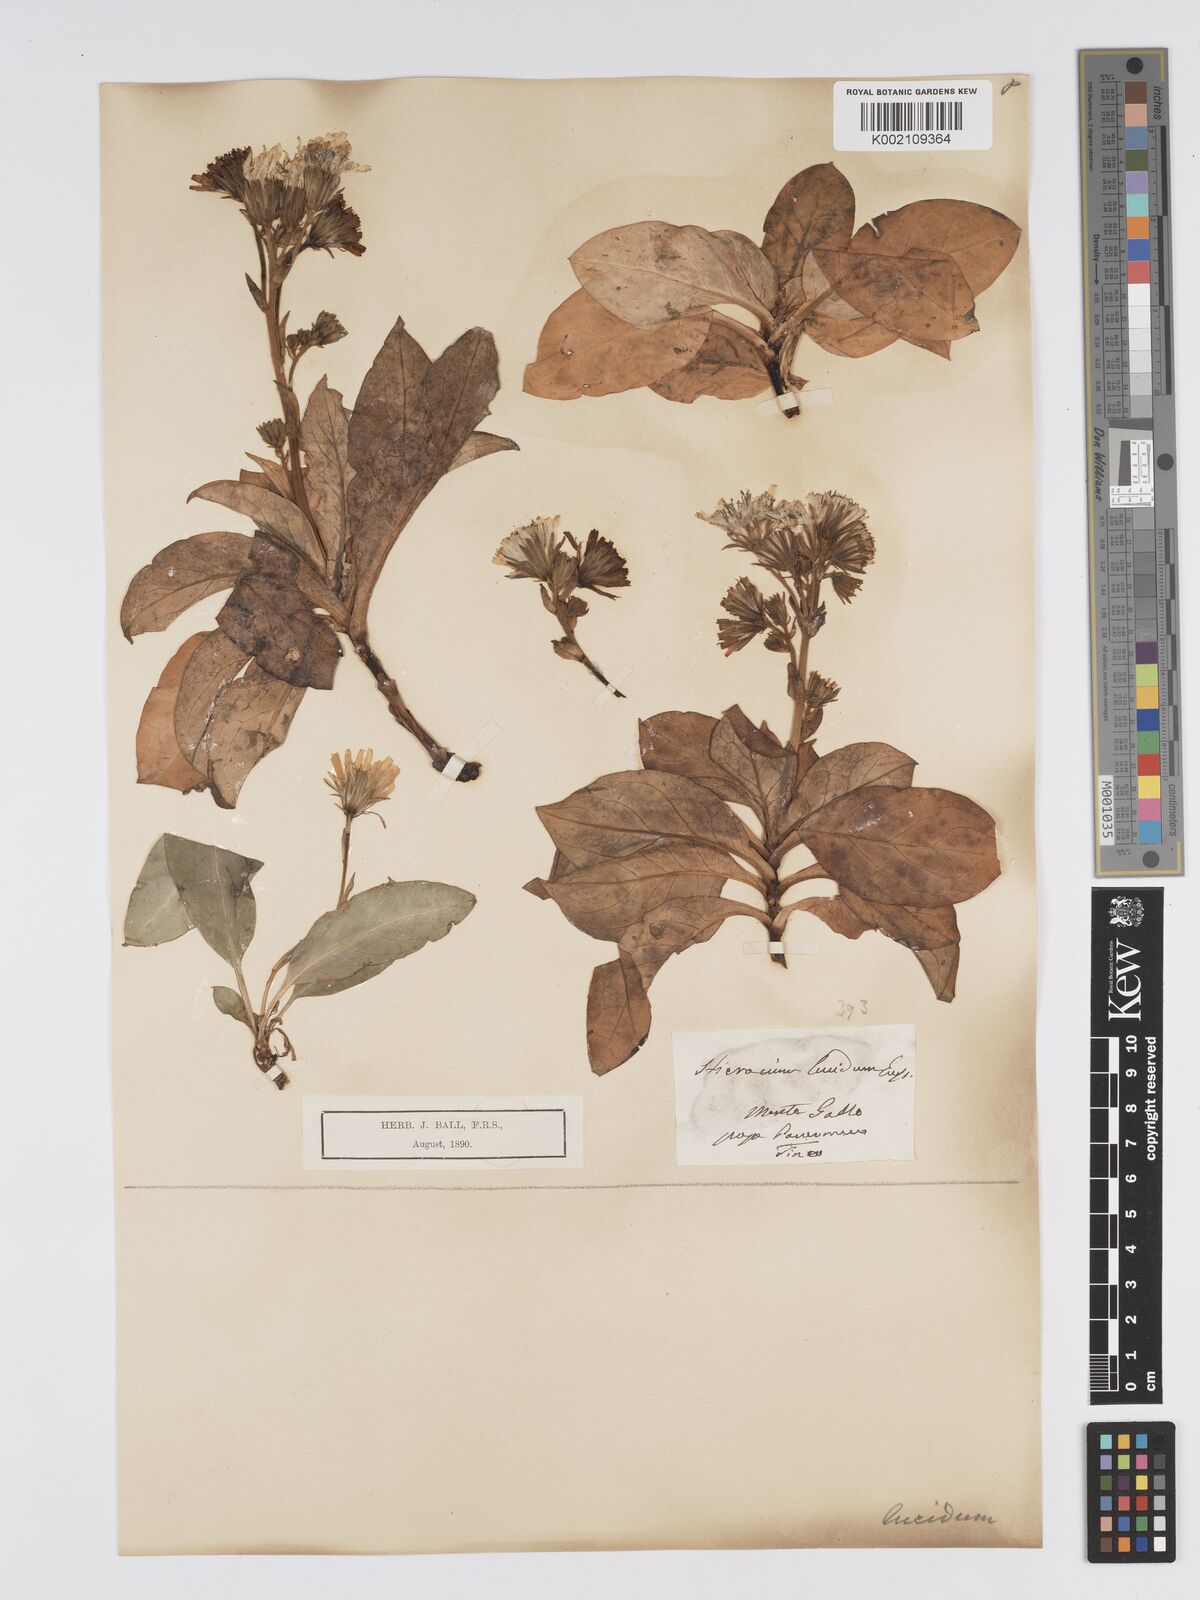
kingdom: Plantae
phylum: Tracheophyta
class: Magnoliopsida
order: Asterales
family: Asteraceae
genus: Hieracium
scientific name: Hieracium lucidum
